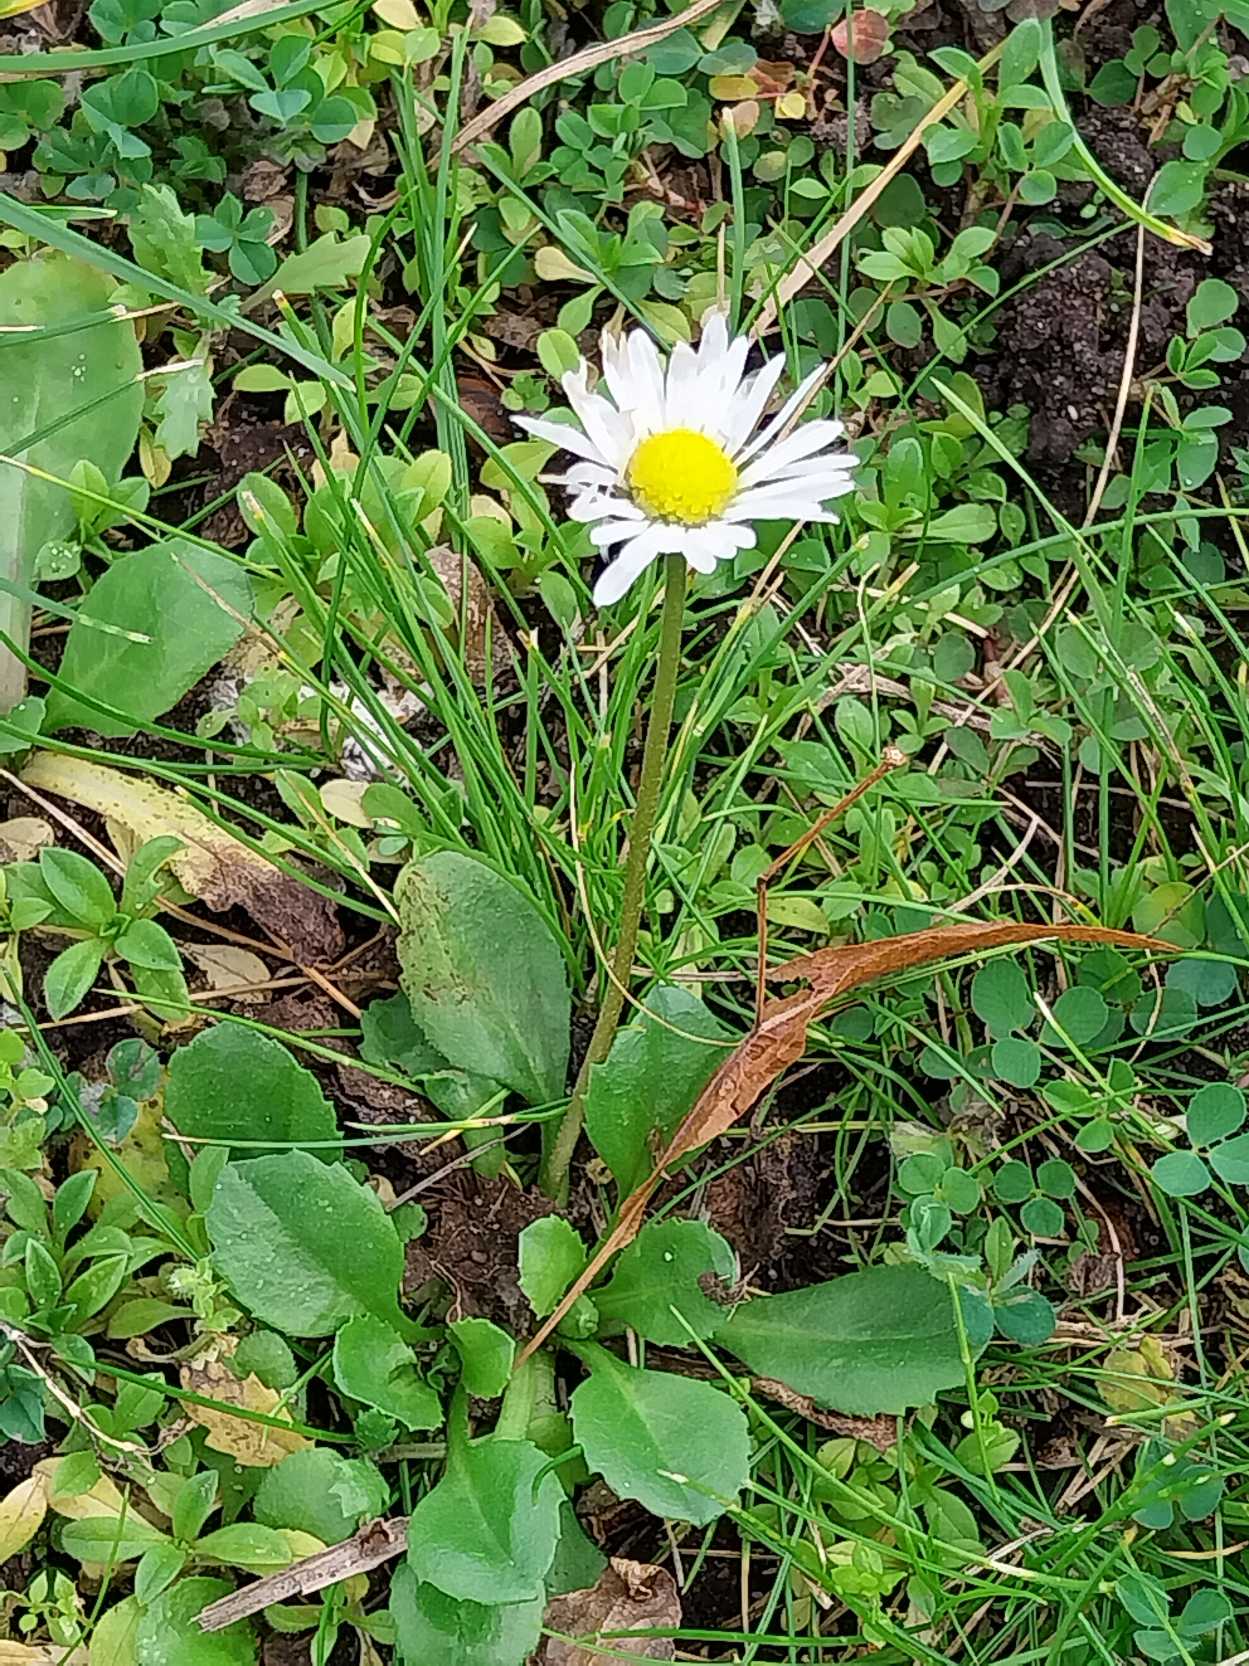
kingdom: Plantae
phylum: Tracheophyta
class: Magnoliopsida
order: Asterales
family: Asteraceae
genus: Bellis
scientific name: Bellis perennis
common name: Tusindfryd
